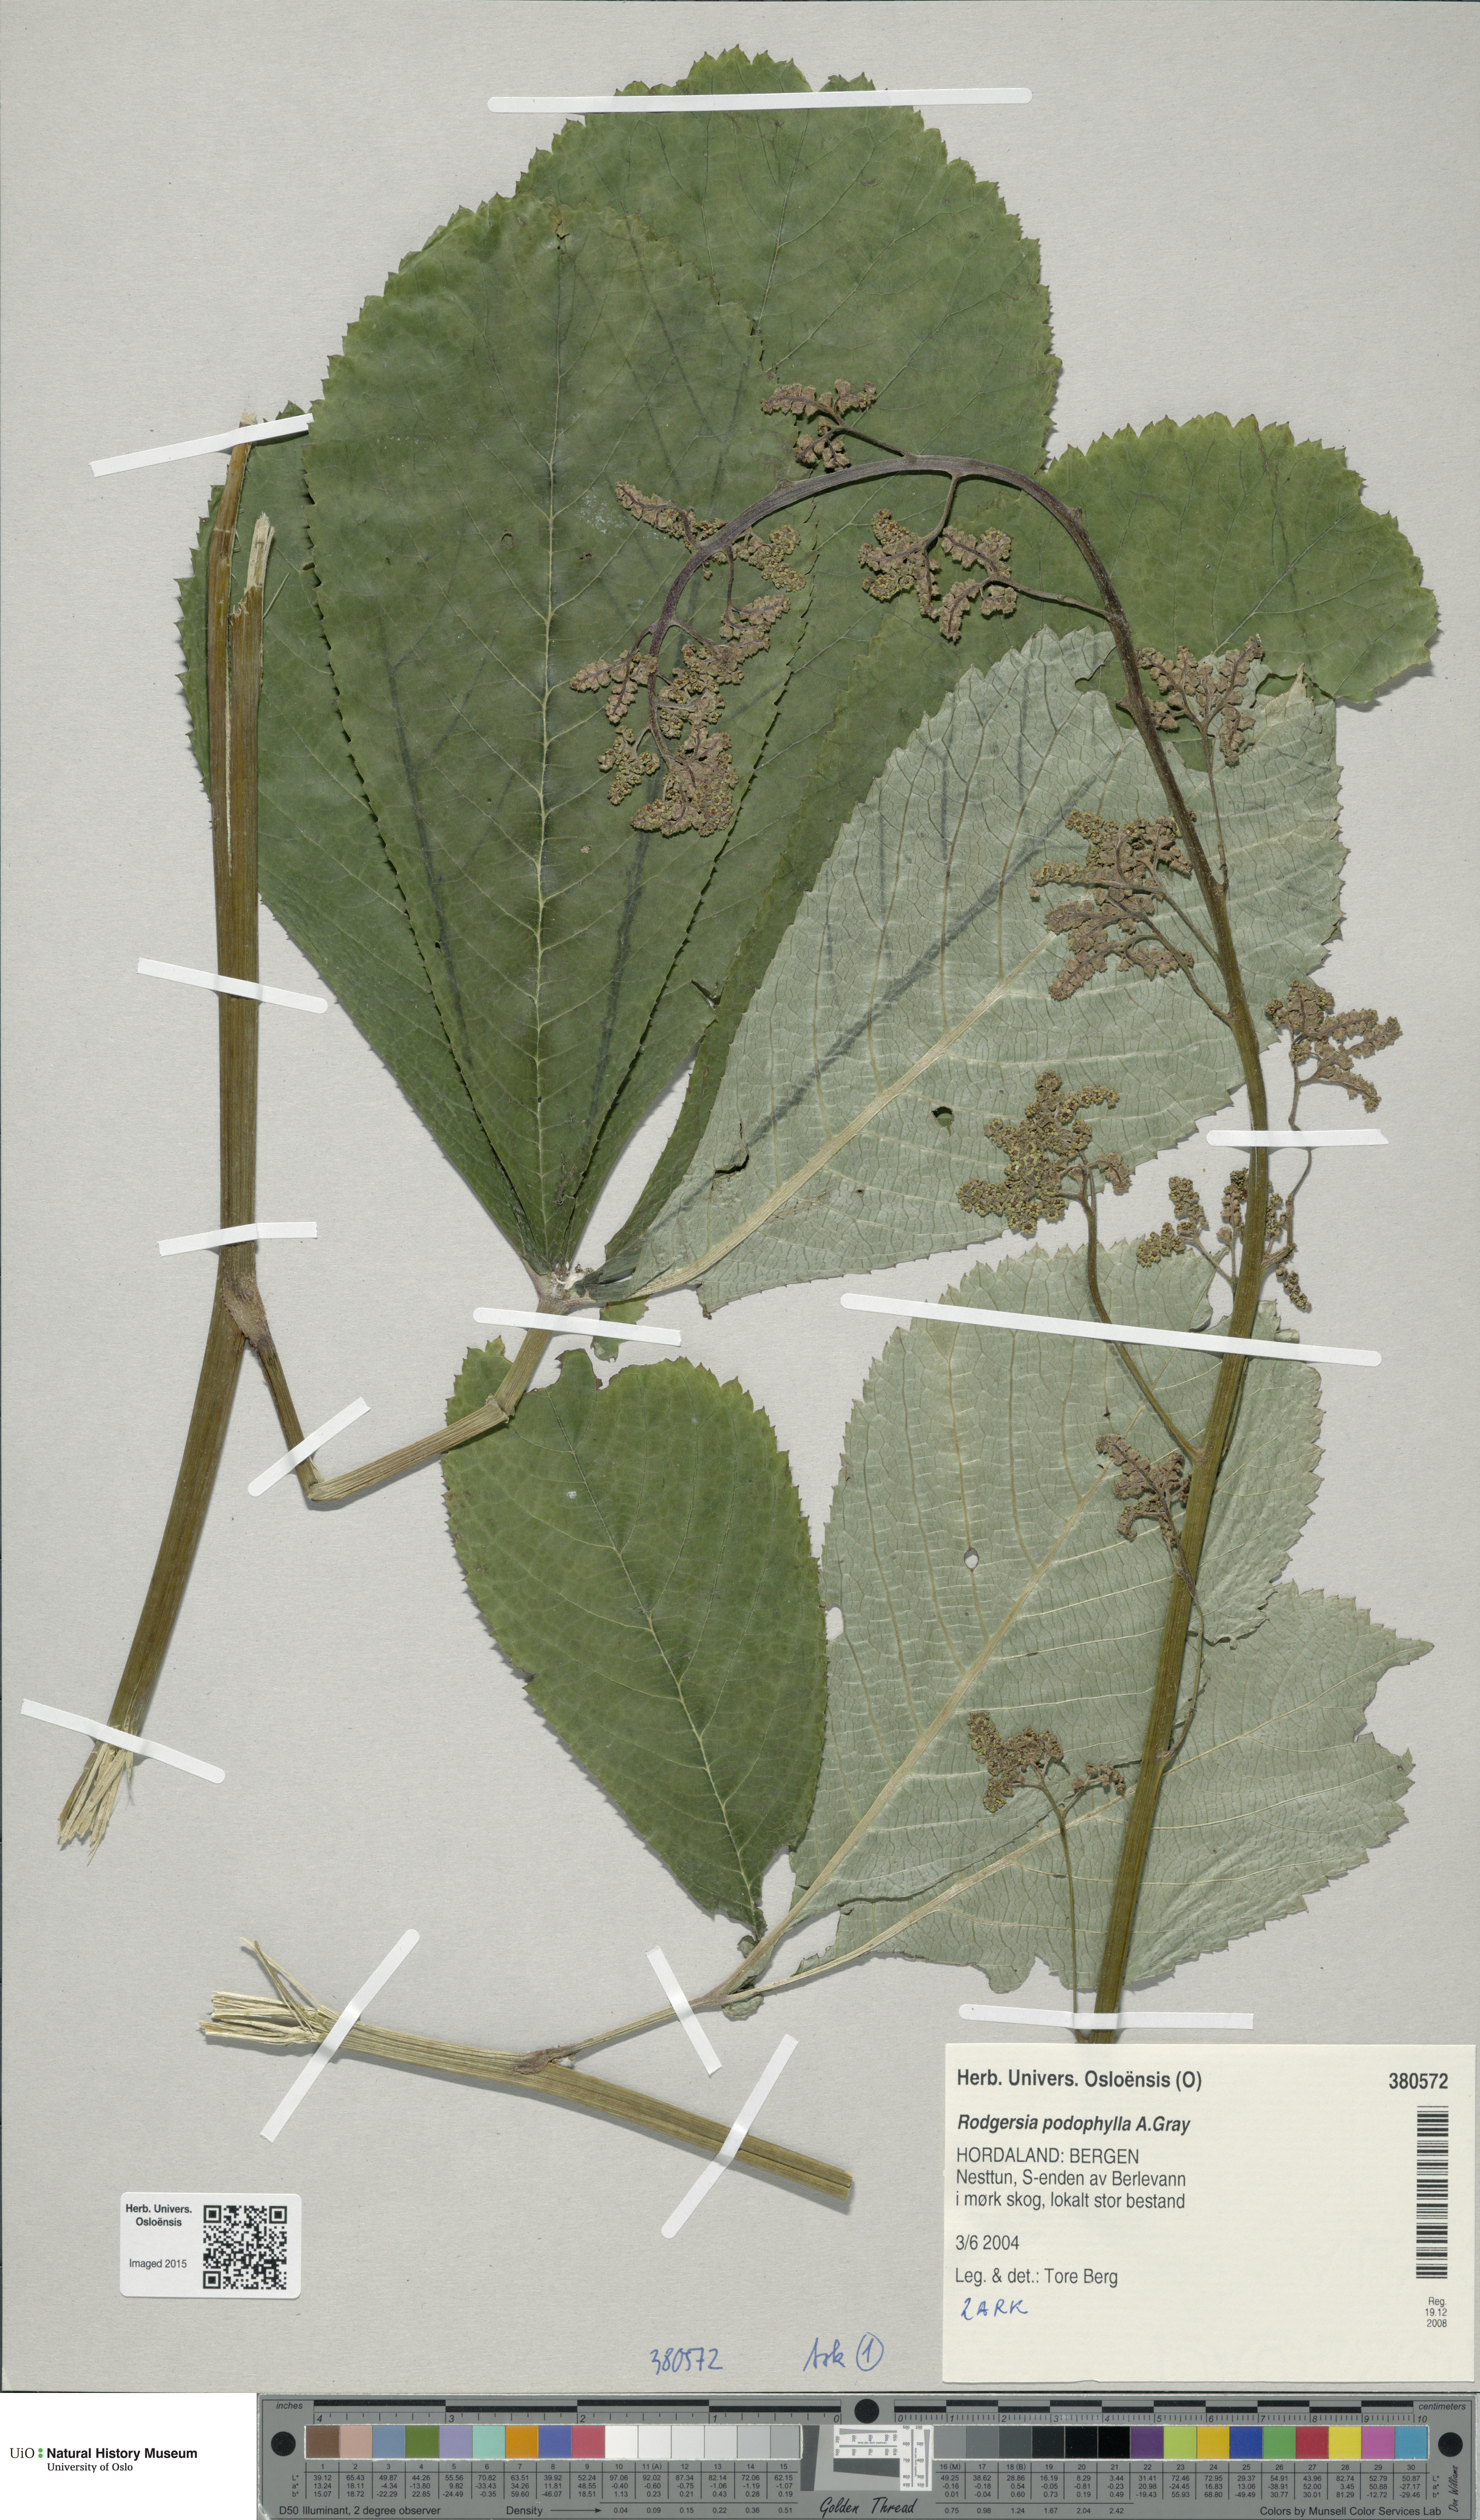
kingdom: Plantae
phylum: Tracheophyta
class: Magnoliopsida
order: Saxifragales
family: Saxifragaceae
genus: Rodgersia
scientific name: Rodgersia podophylla
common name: Rodgersia
